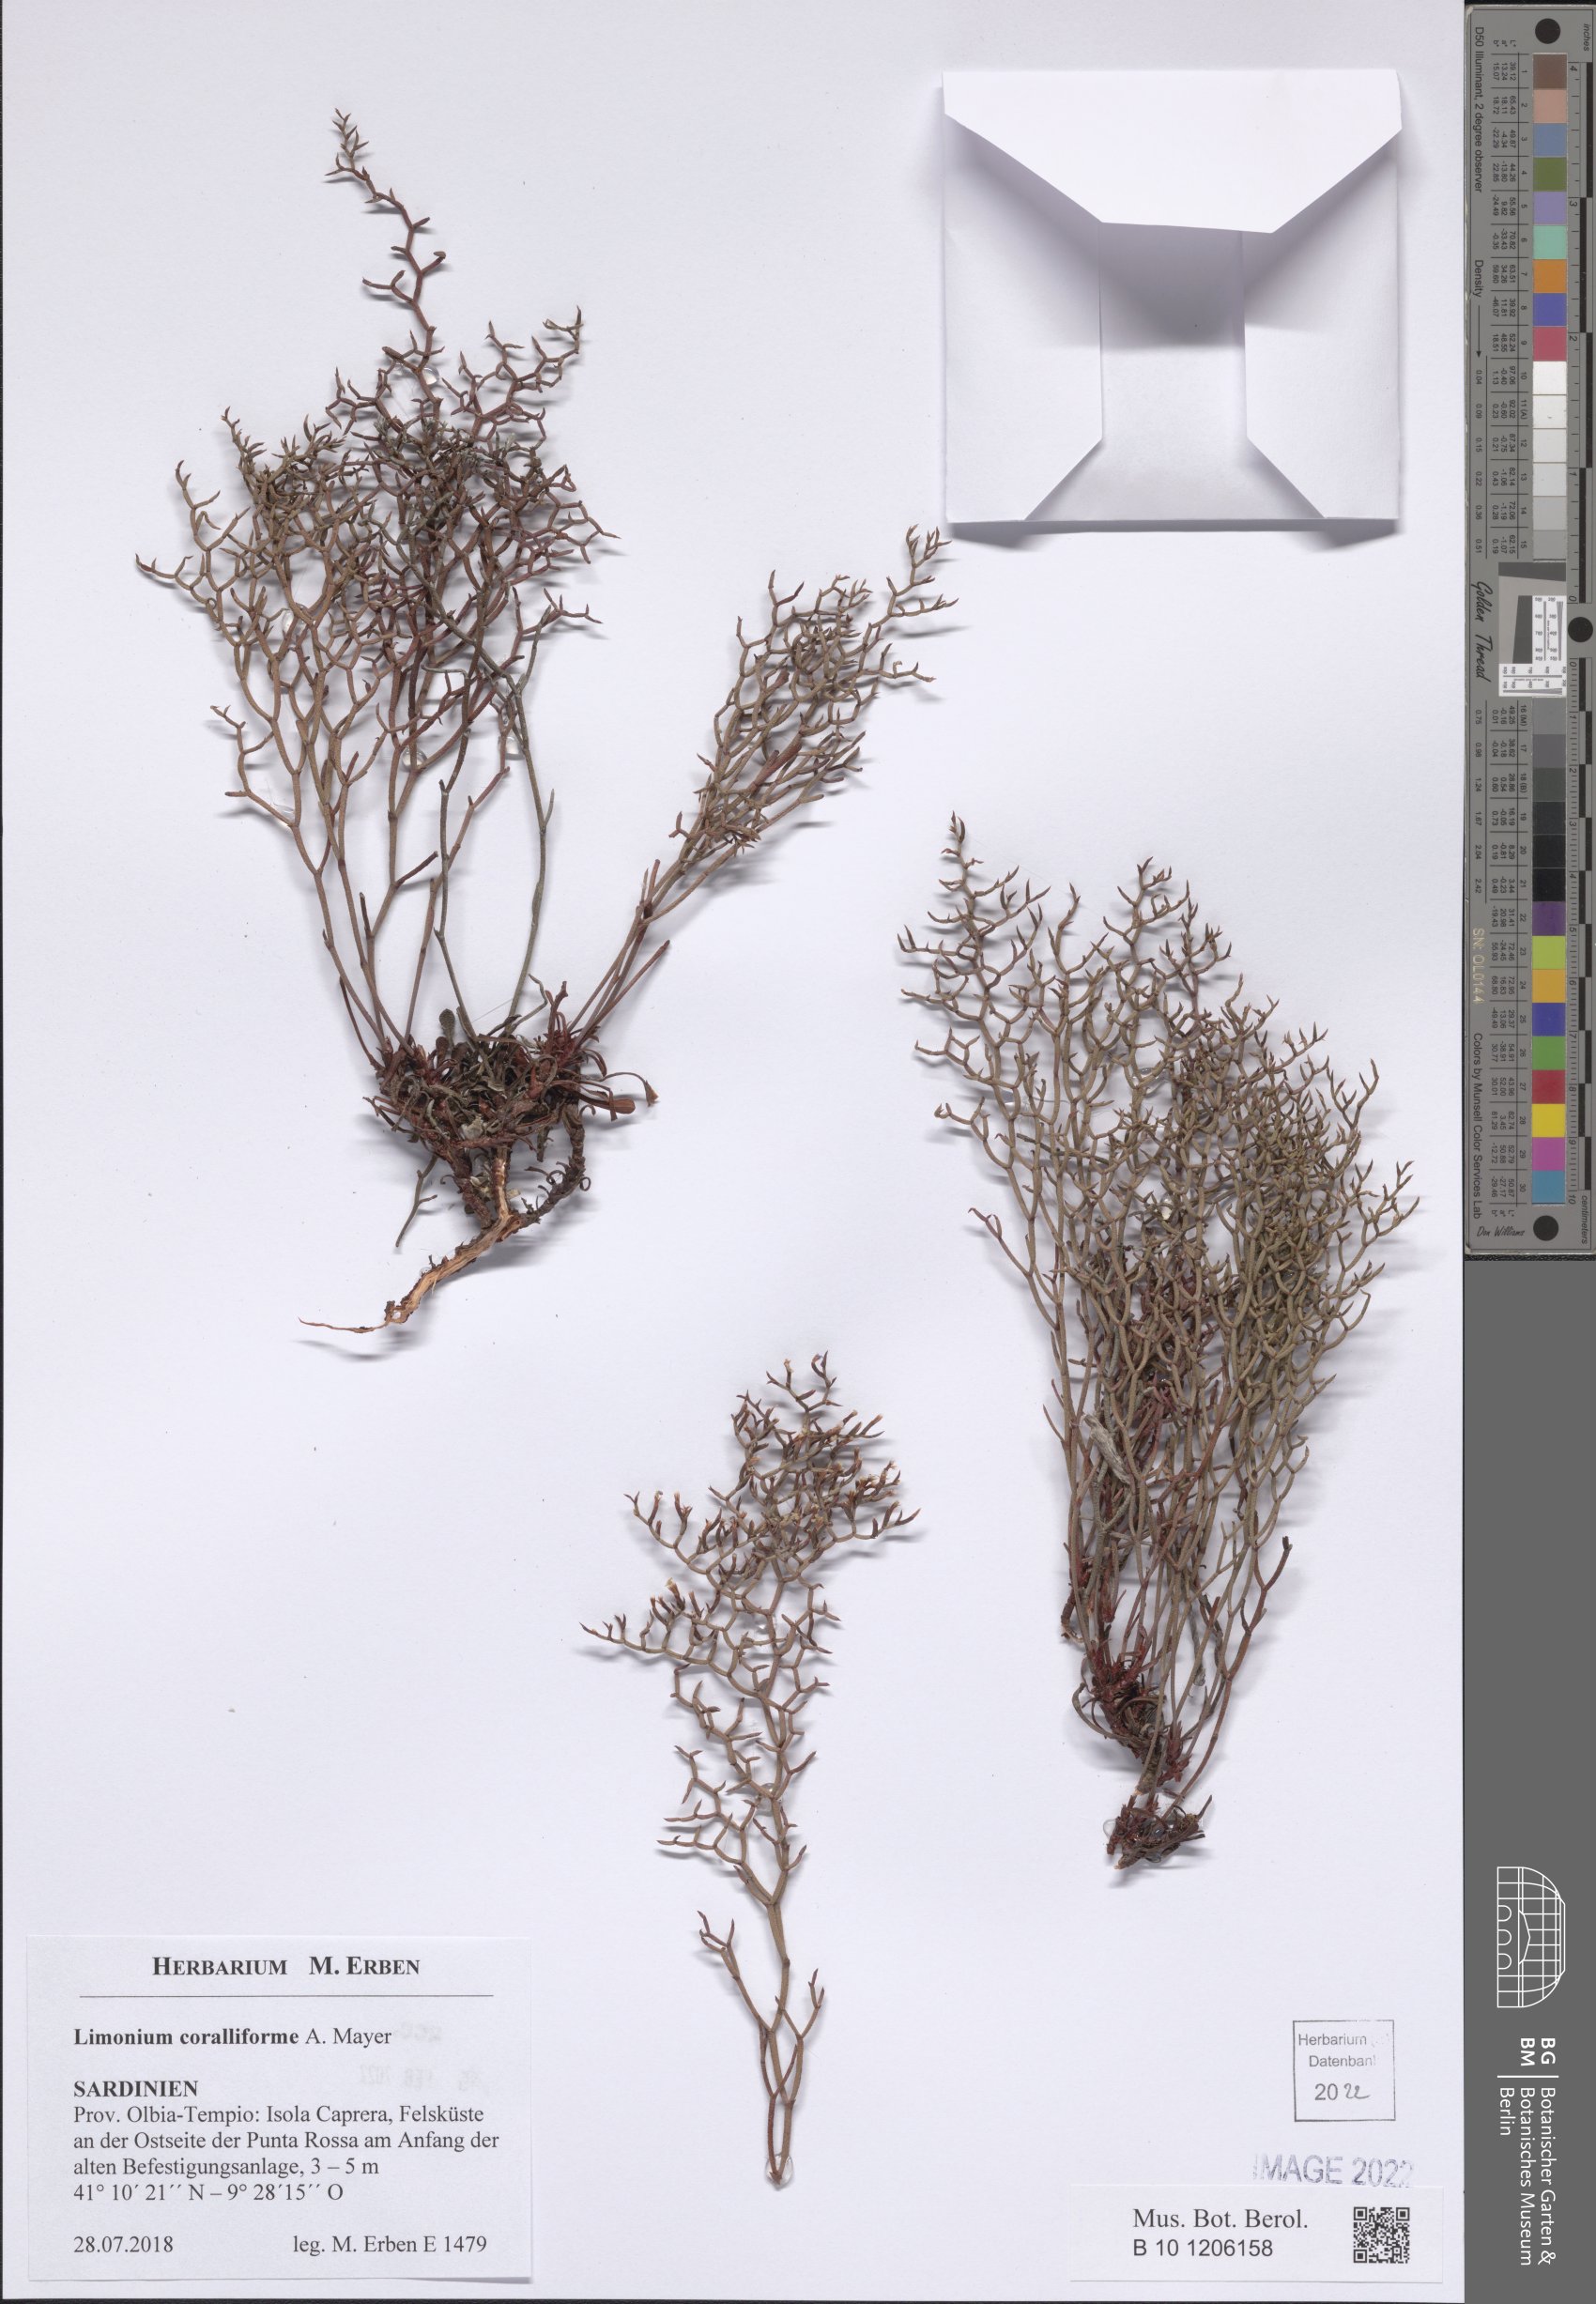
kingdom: Plantae
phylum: Tracheophyta
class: Magnoliopsida
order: Caryophyllales
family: Plumbaginaceae
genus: Limonium
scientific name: Limonium coralliforme
